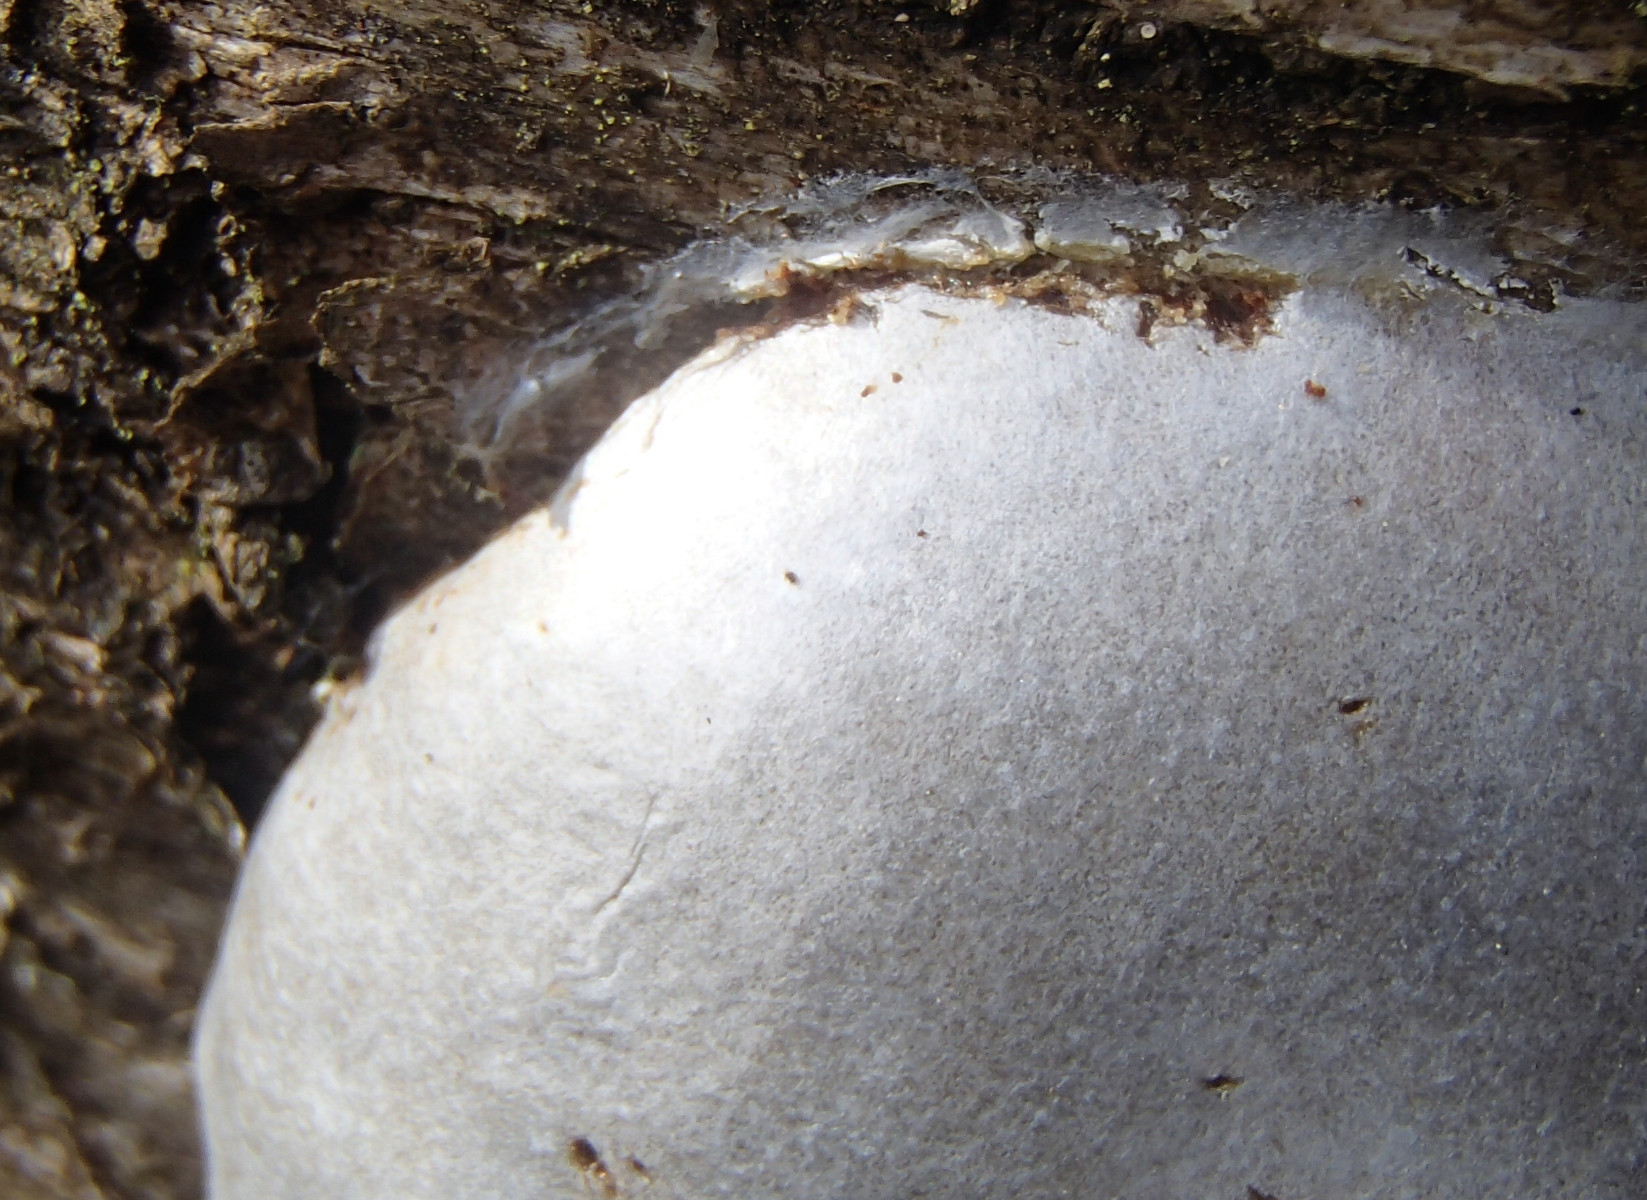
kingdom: Protozoa
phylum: Mycetozoa
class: Myxomycetes
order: Cribrariales
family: Tubiferaceae
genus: Reticularia
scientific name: Reticularia lycoperdon
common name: skinnende støvpude
